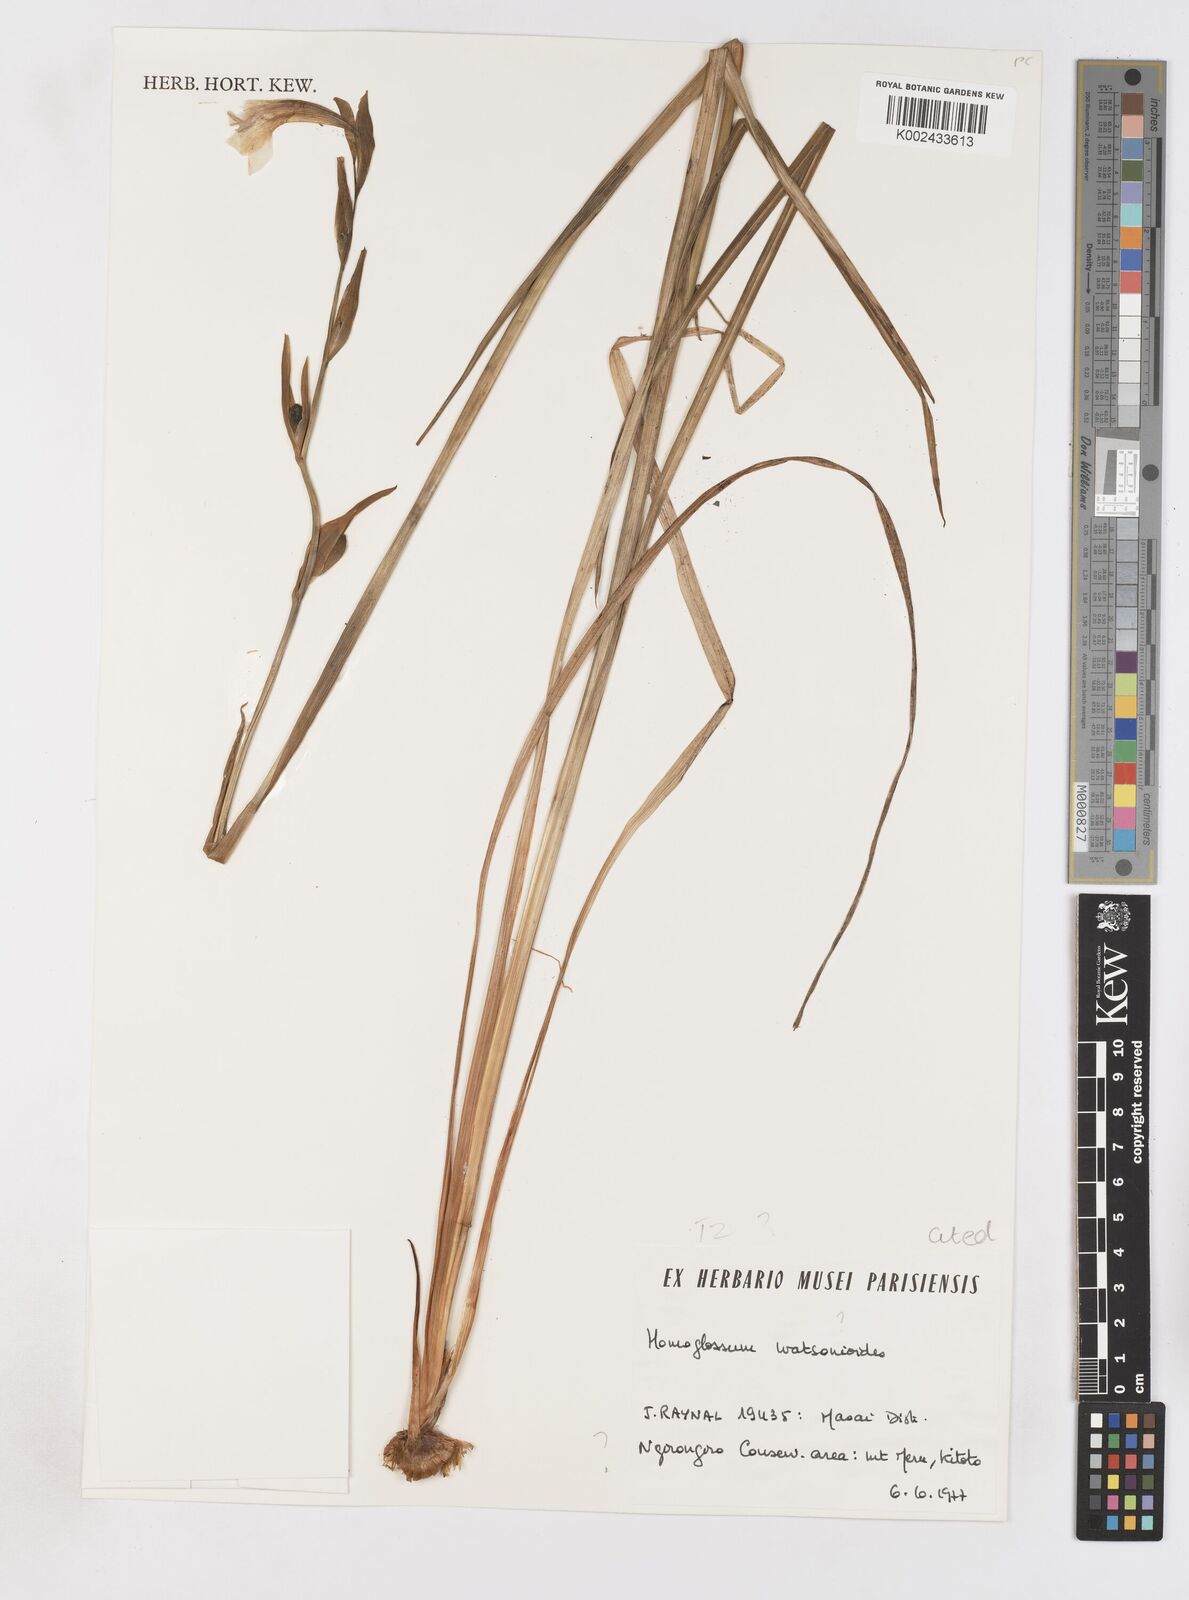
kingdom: Plantae
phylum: Tracheophyta
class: Liliopsida
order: Asparagales
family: Iridaceae
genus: Gladiolus
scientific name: Gladiolus watsonioides
